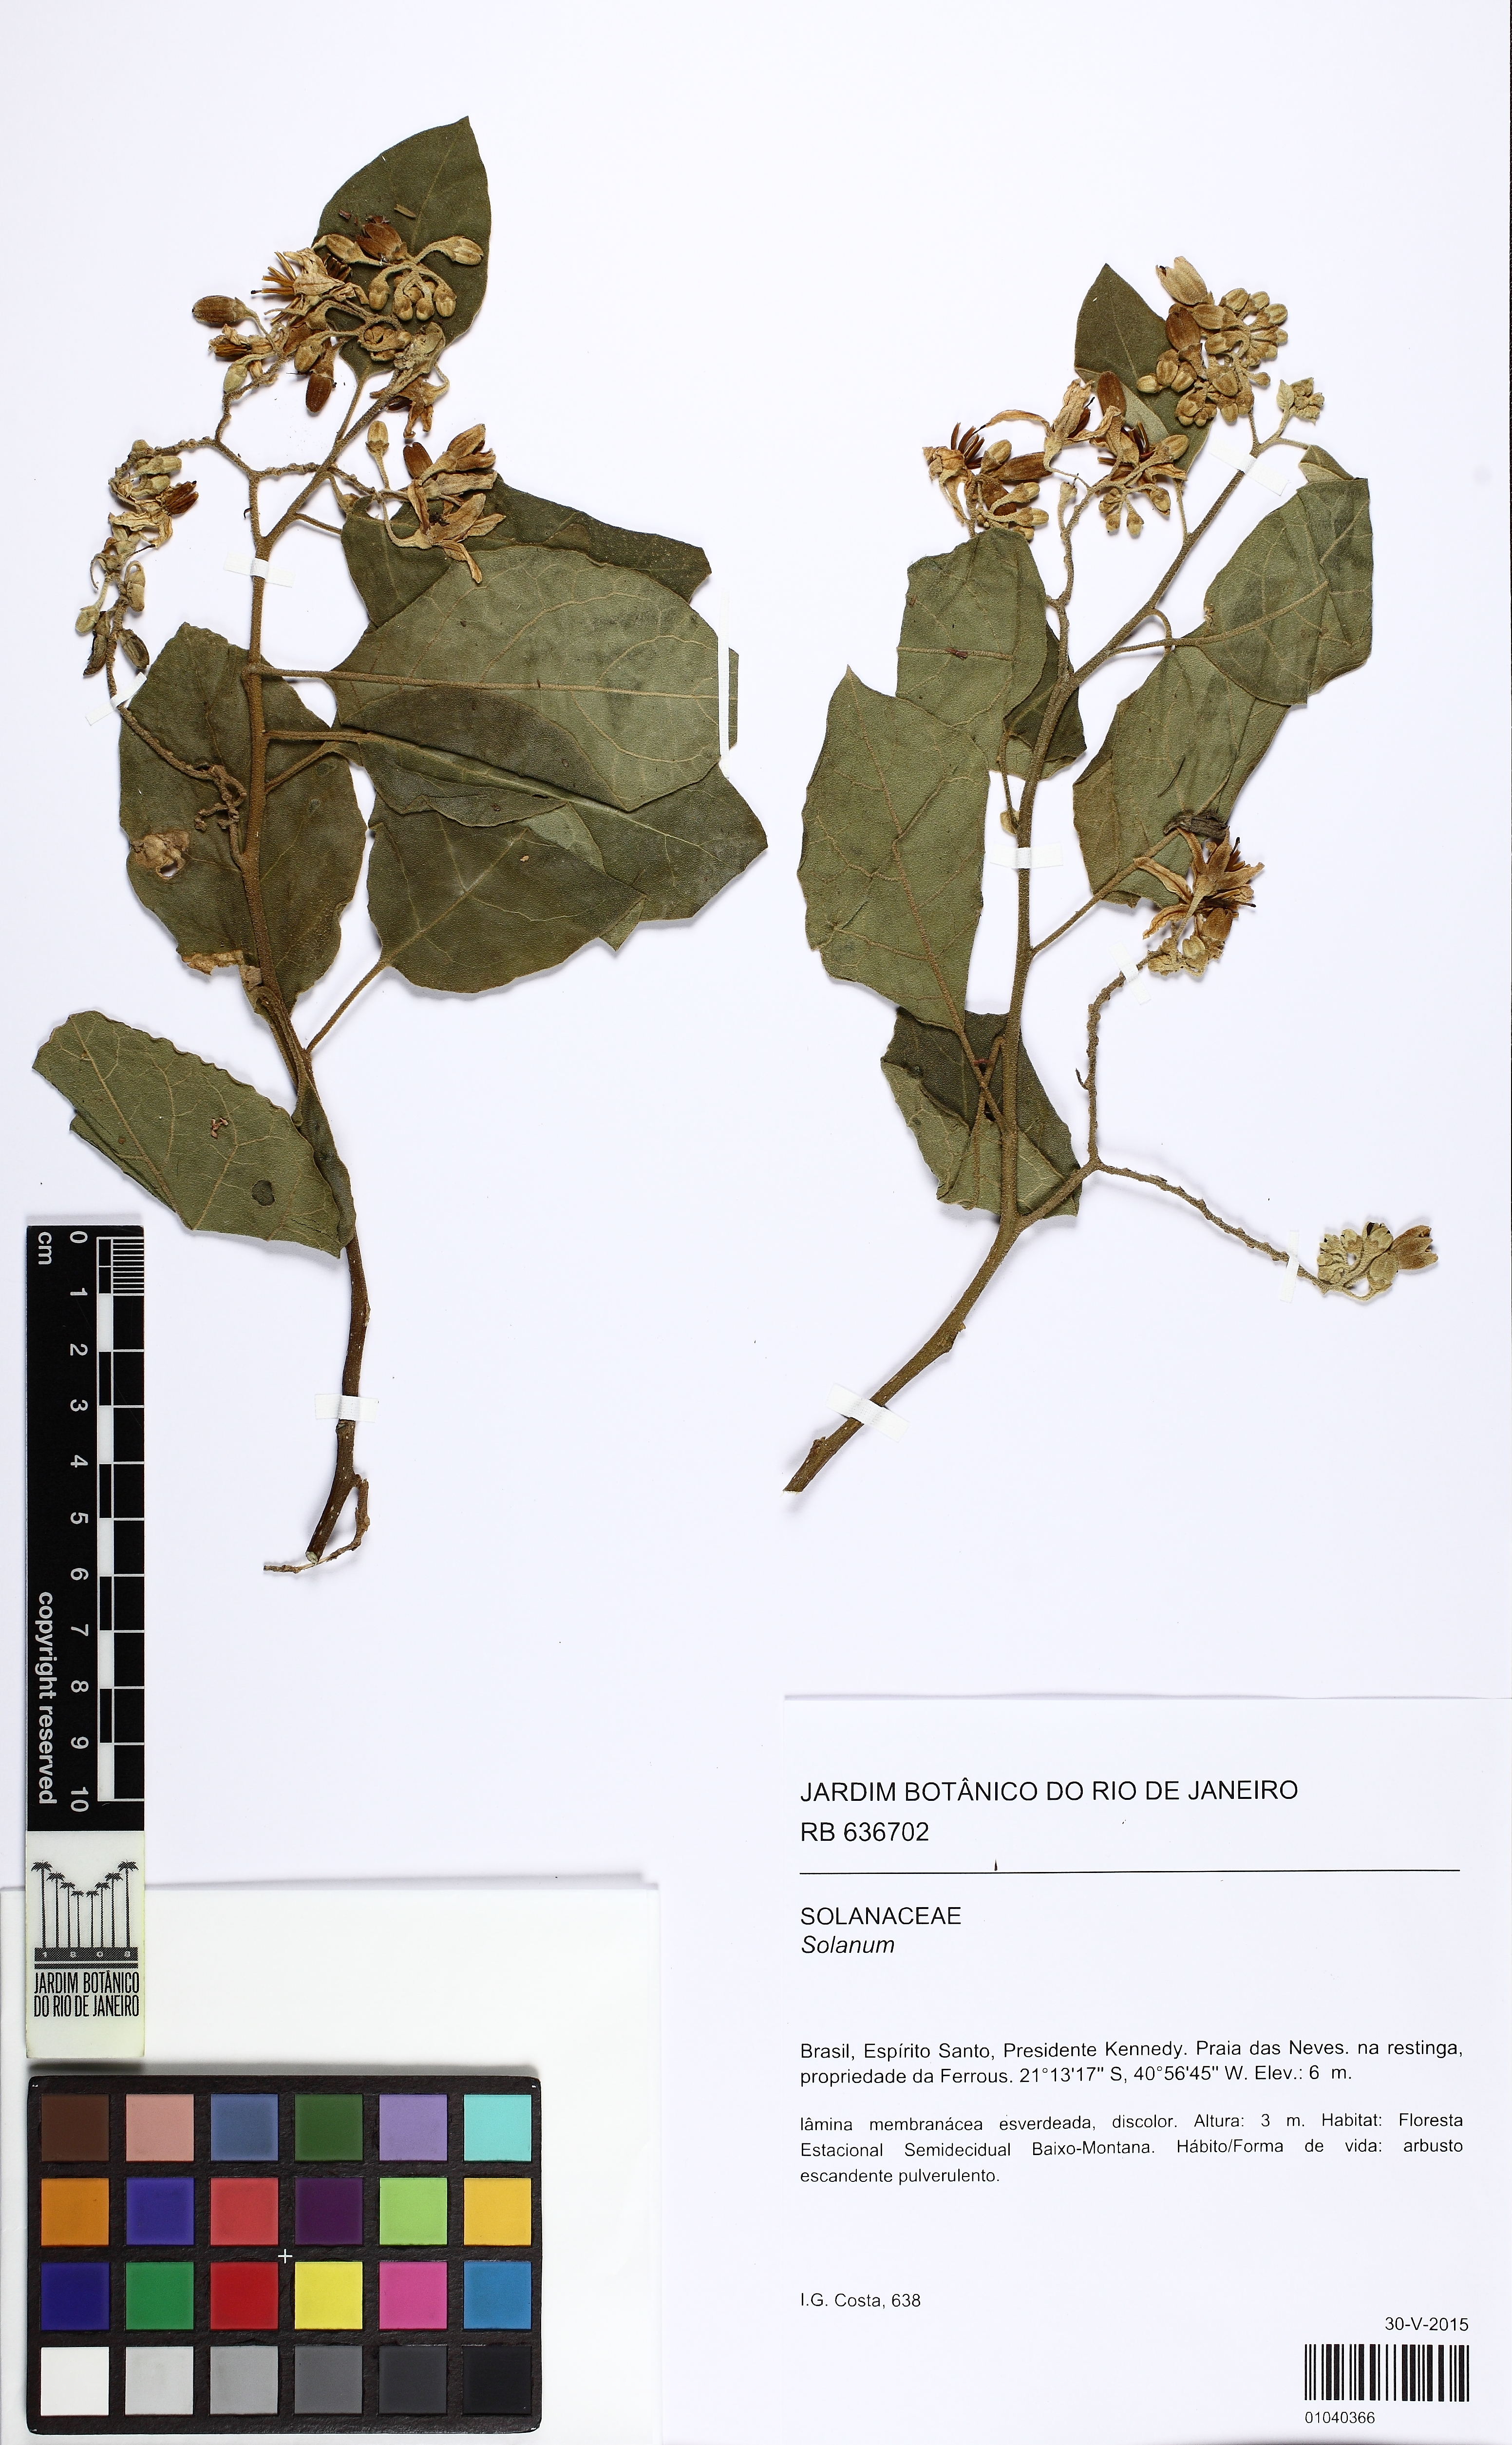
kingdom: Plantae
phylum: Tracheophyta
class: Magnoliopsida
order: Solanales
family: Solanaceae
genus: Solanum
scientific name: Solanum jussiaei
